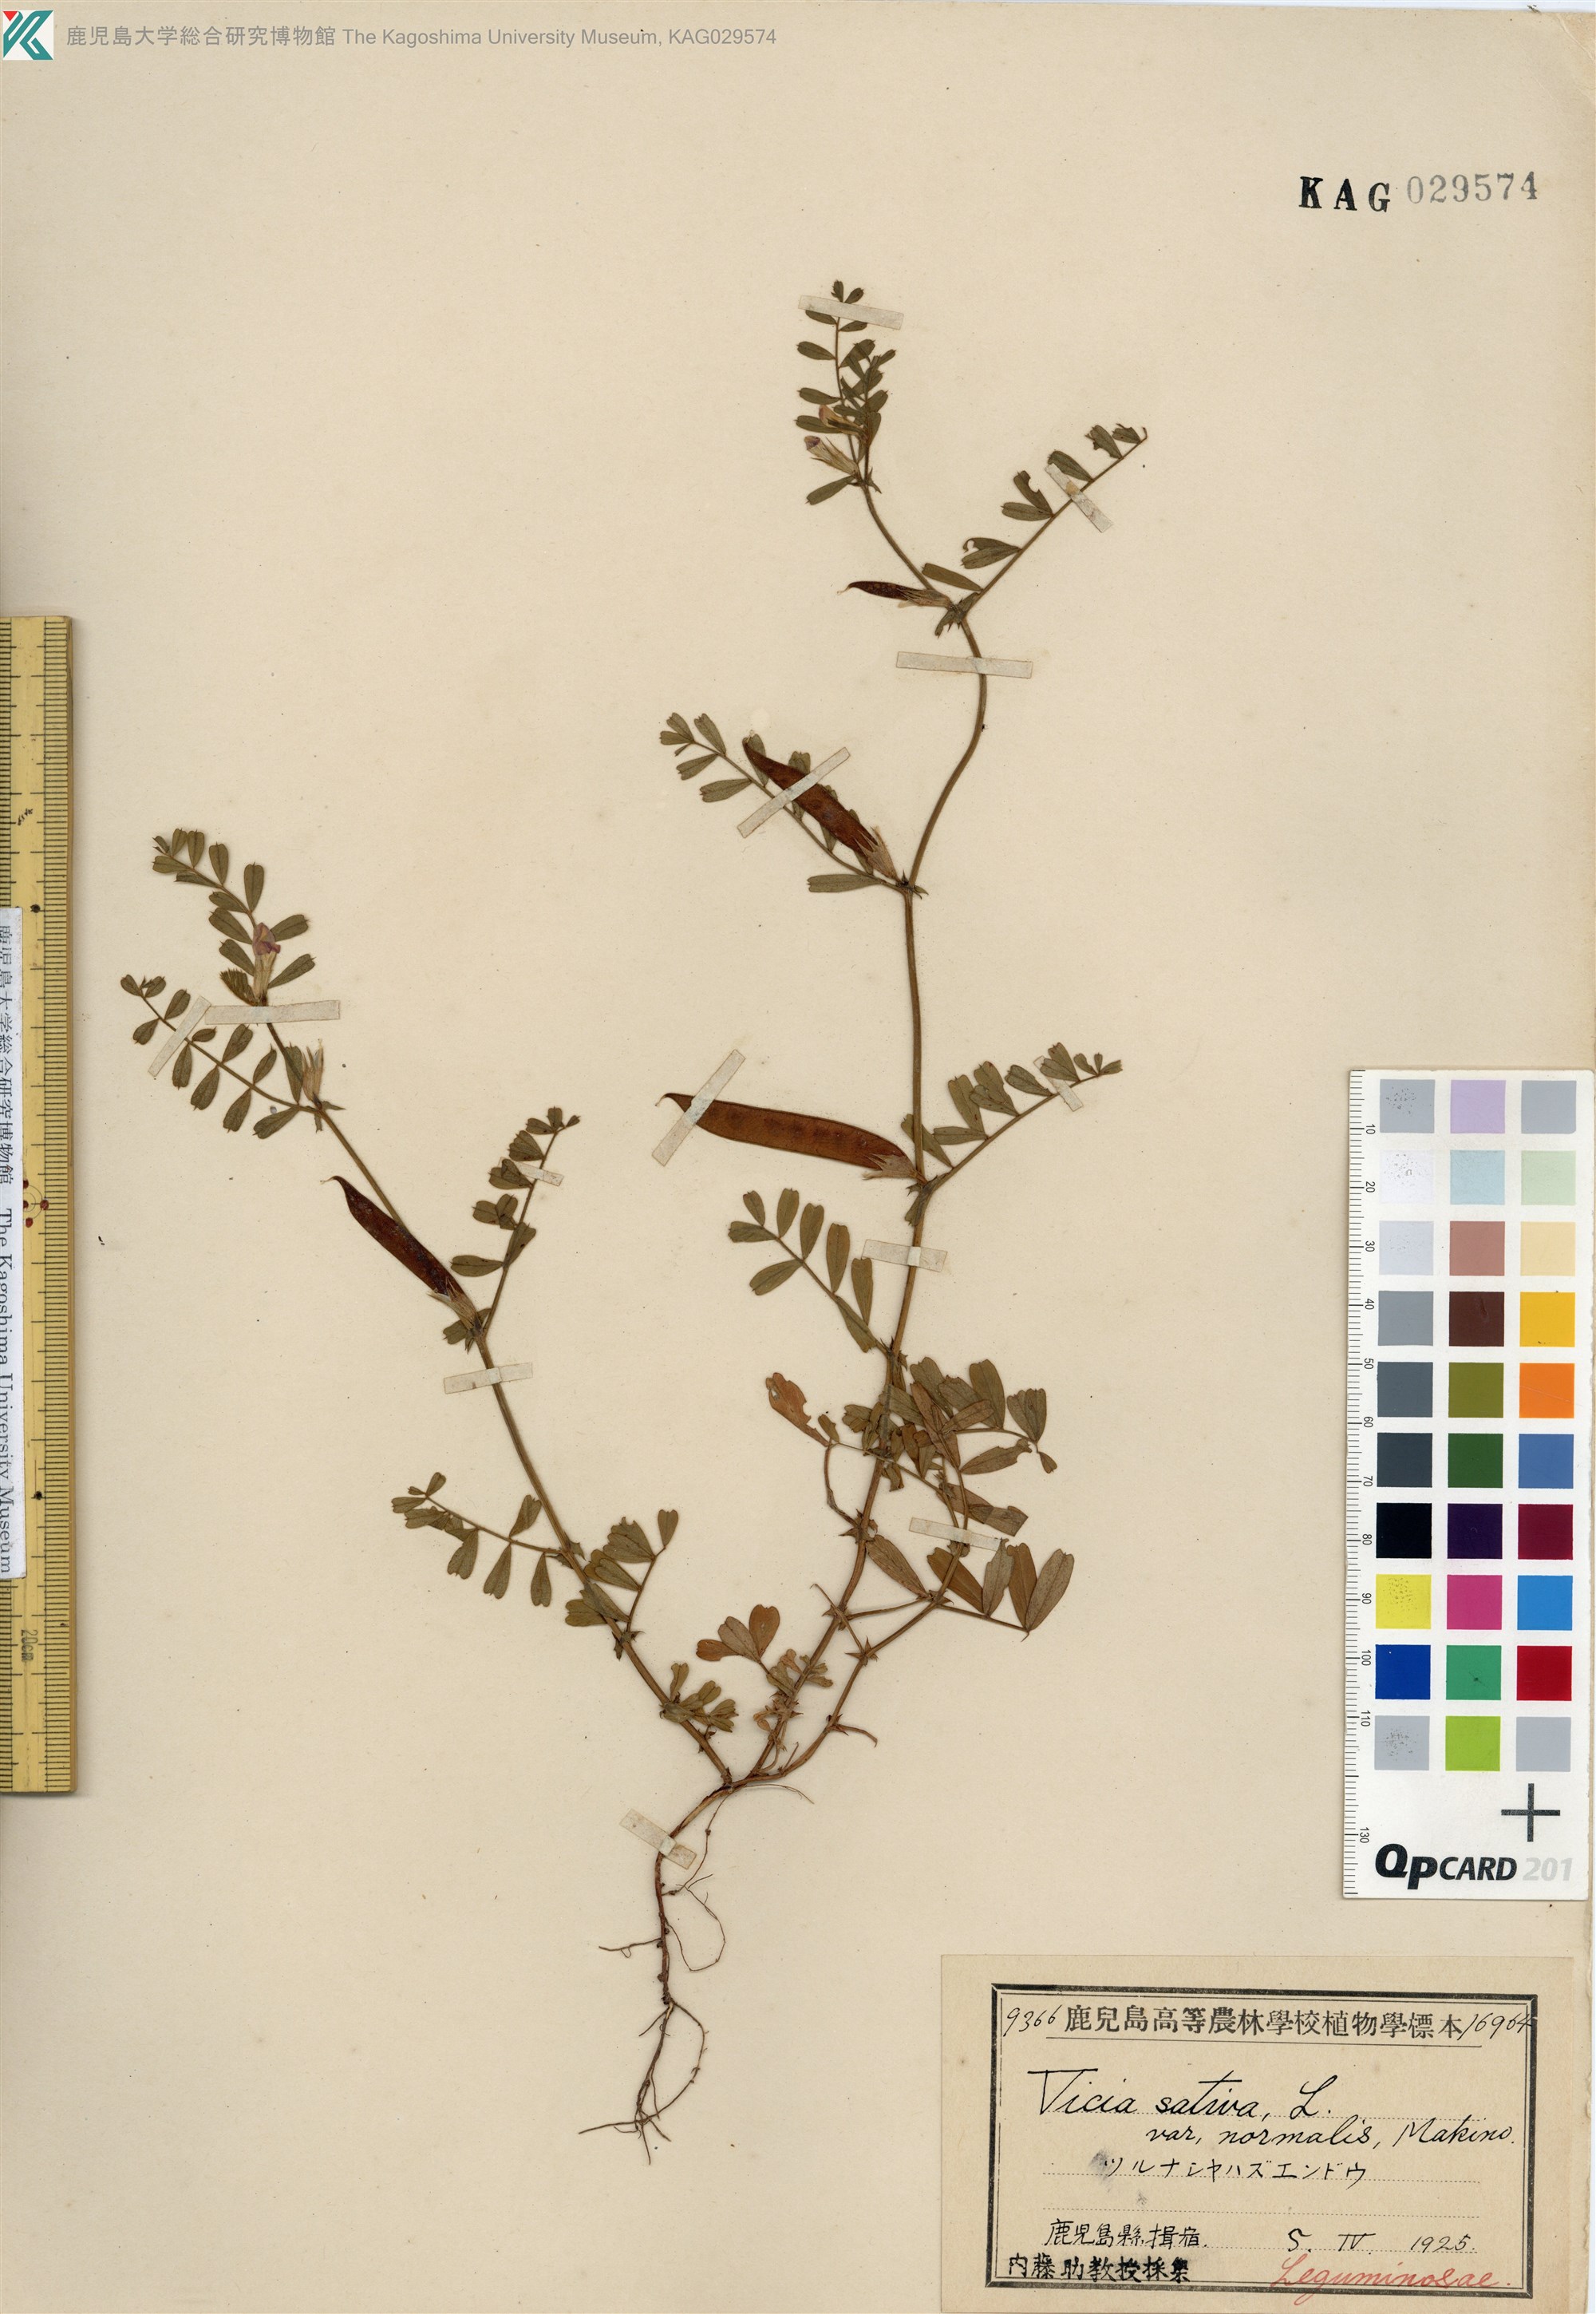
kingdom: Plantae
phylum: Tracheophyta
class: Magnoliopsida
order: Fabales
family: Fabaceae
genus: Vicia
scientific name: Vicia sativa
